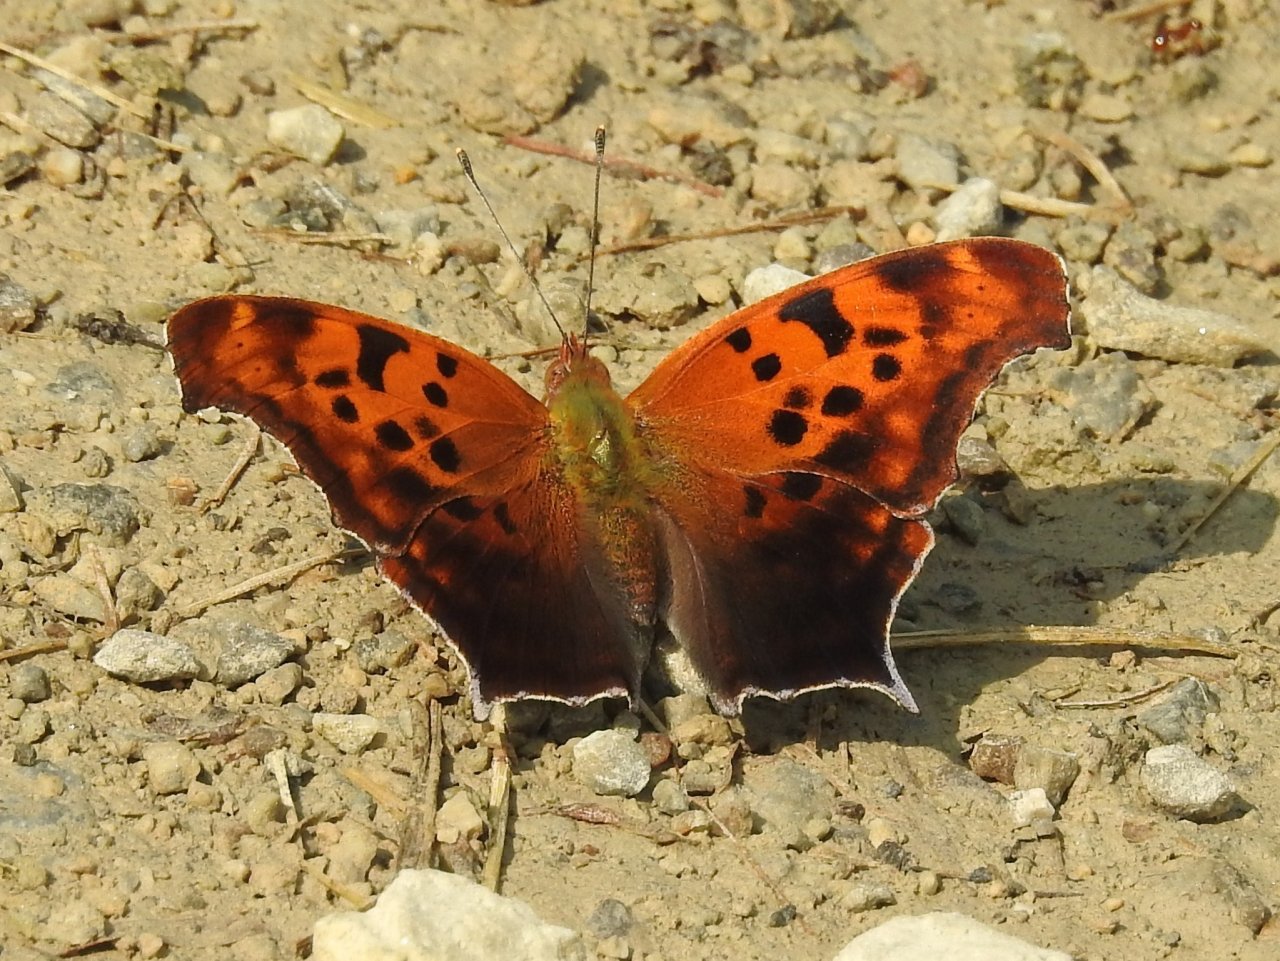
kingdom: Animalia
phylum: Arthropoda
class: Insecta
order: Lepidoptera
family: Nymphalidae
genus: Polygonia
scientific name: Polygonia interrogationis
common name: Question Mark
